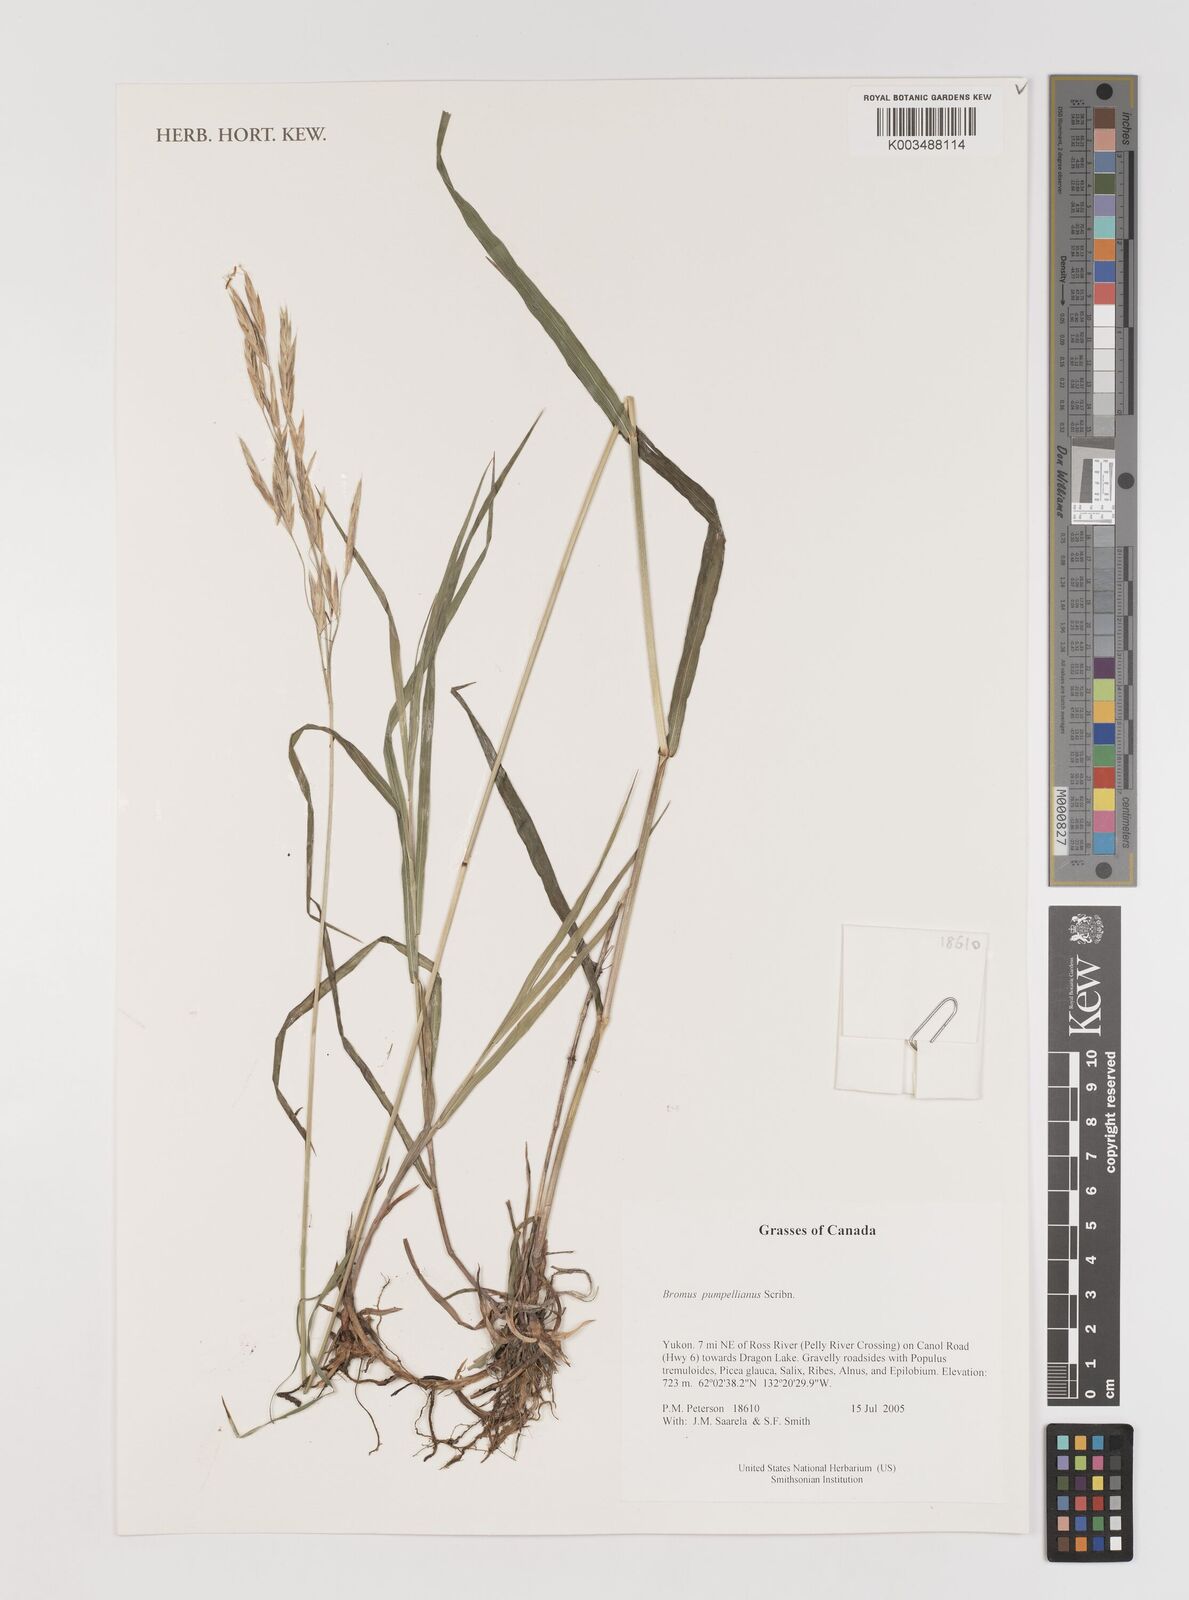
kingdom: Plantae
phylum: Tracheophyta
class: Liliopsida
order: Poales
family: Poaceae
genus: Bromus
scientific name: Bromus pumpellianus
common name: Pumpelly's brome
